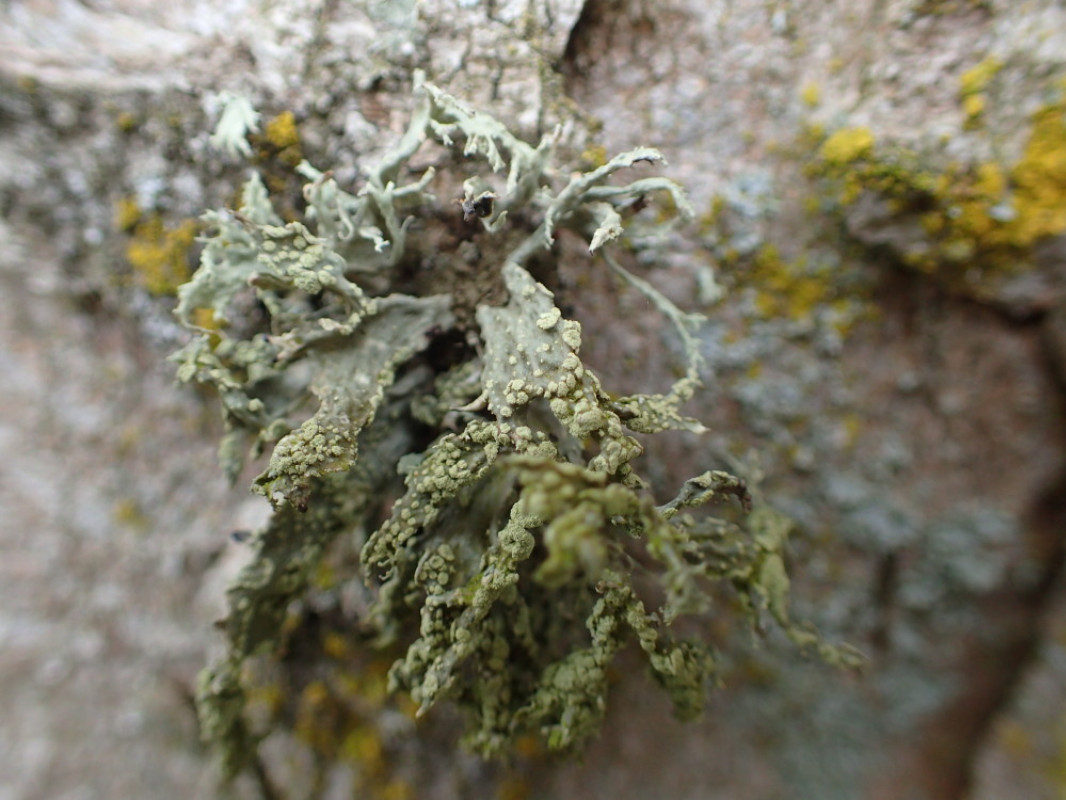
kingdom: Fungi
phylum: Ascomycota
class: Lecanoromycetes
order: Lecanorales
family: Ramalinaceae
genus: Ramalina
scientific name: Ramalina farinacea
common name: melet grenlav
